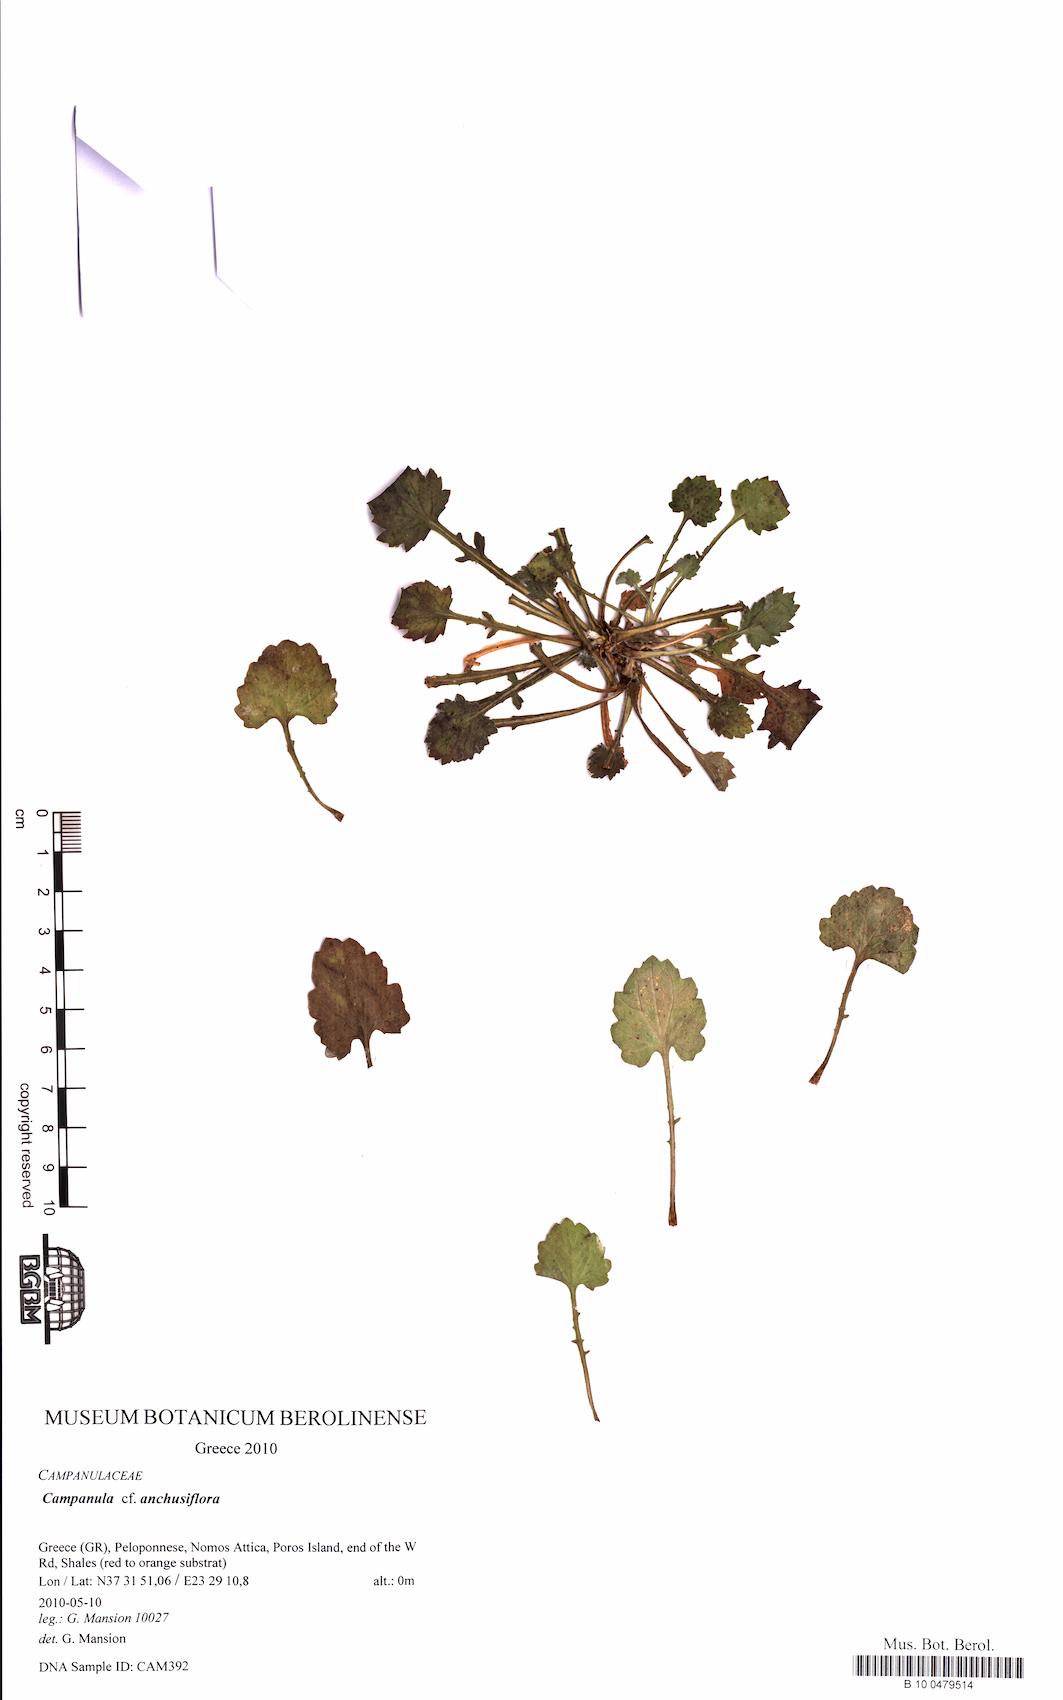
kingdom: Plantae
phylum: Tracheophyta
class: Magnoliopsida
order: Asterales
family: Campanulaceae
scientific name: Campanulaceae
